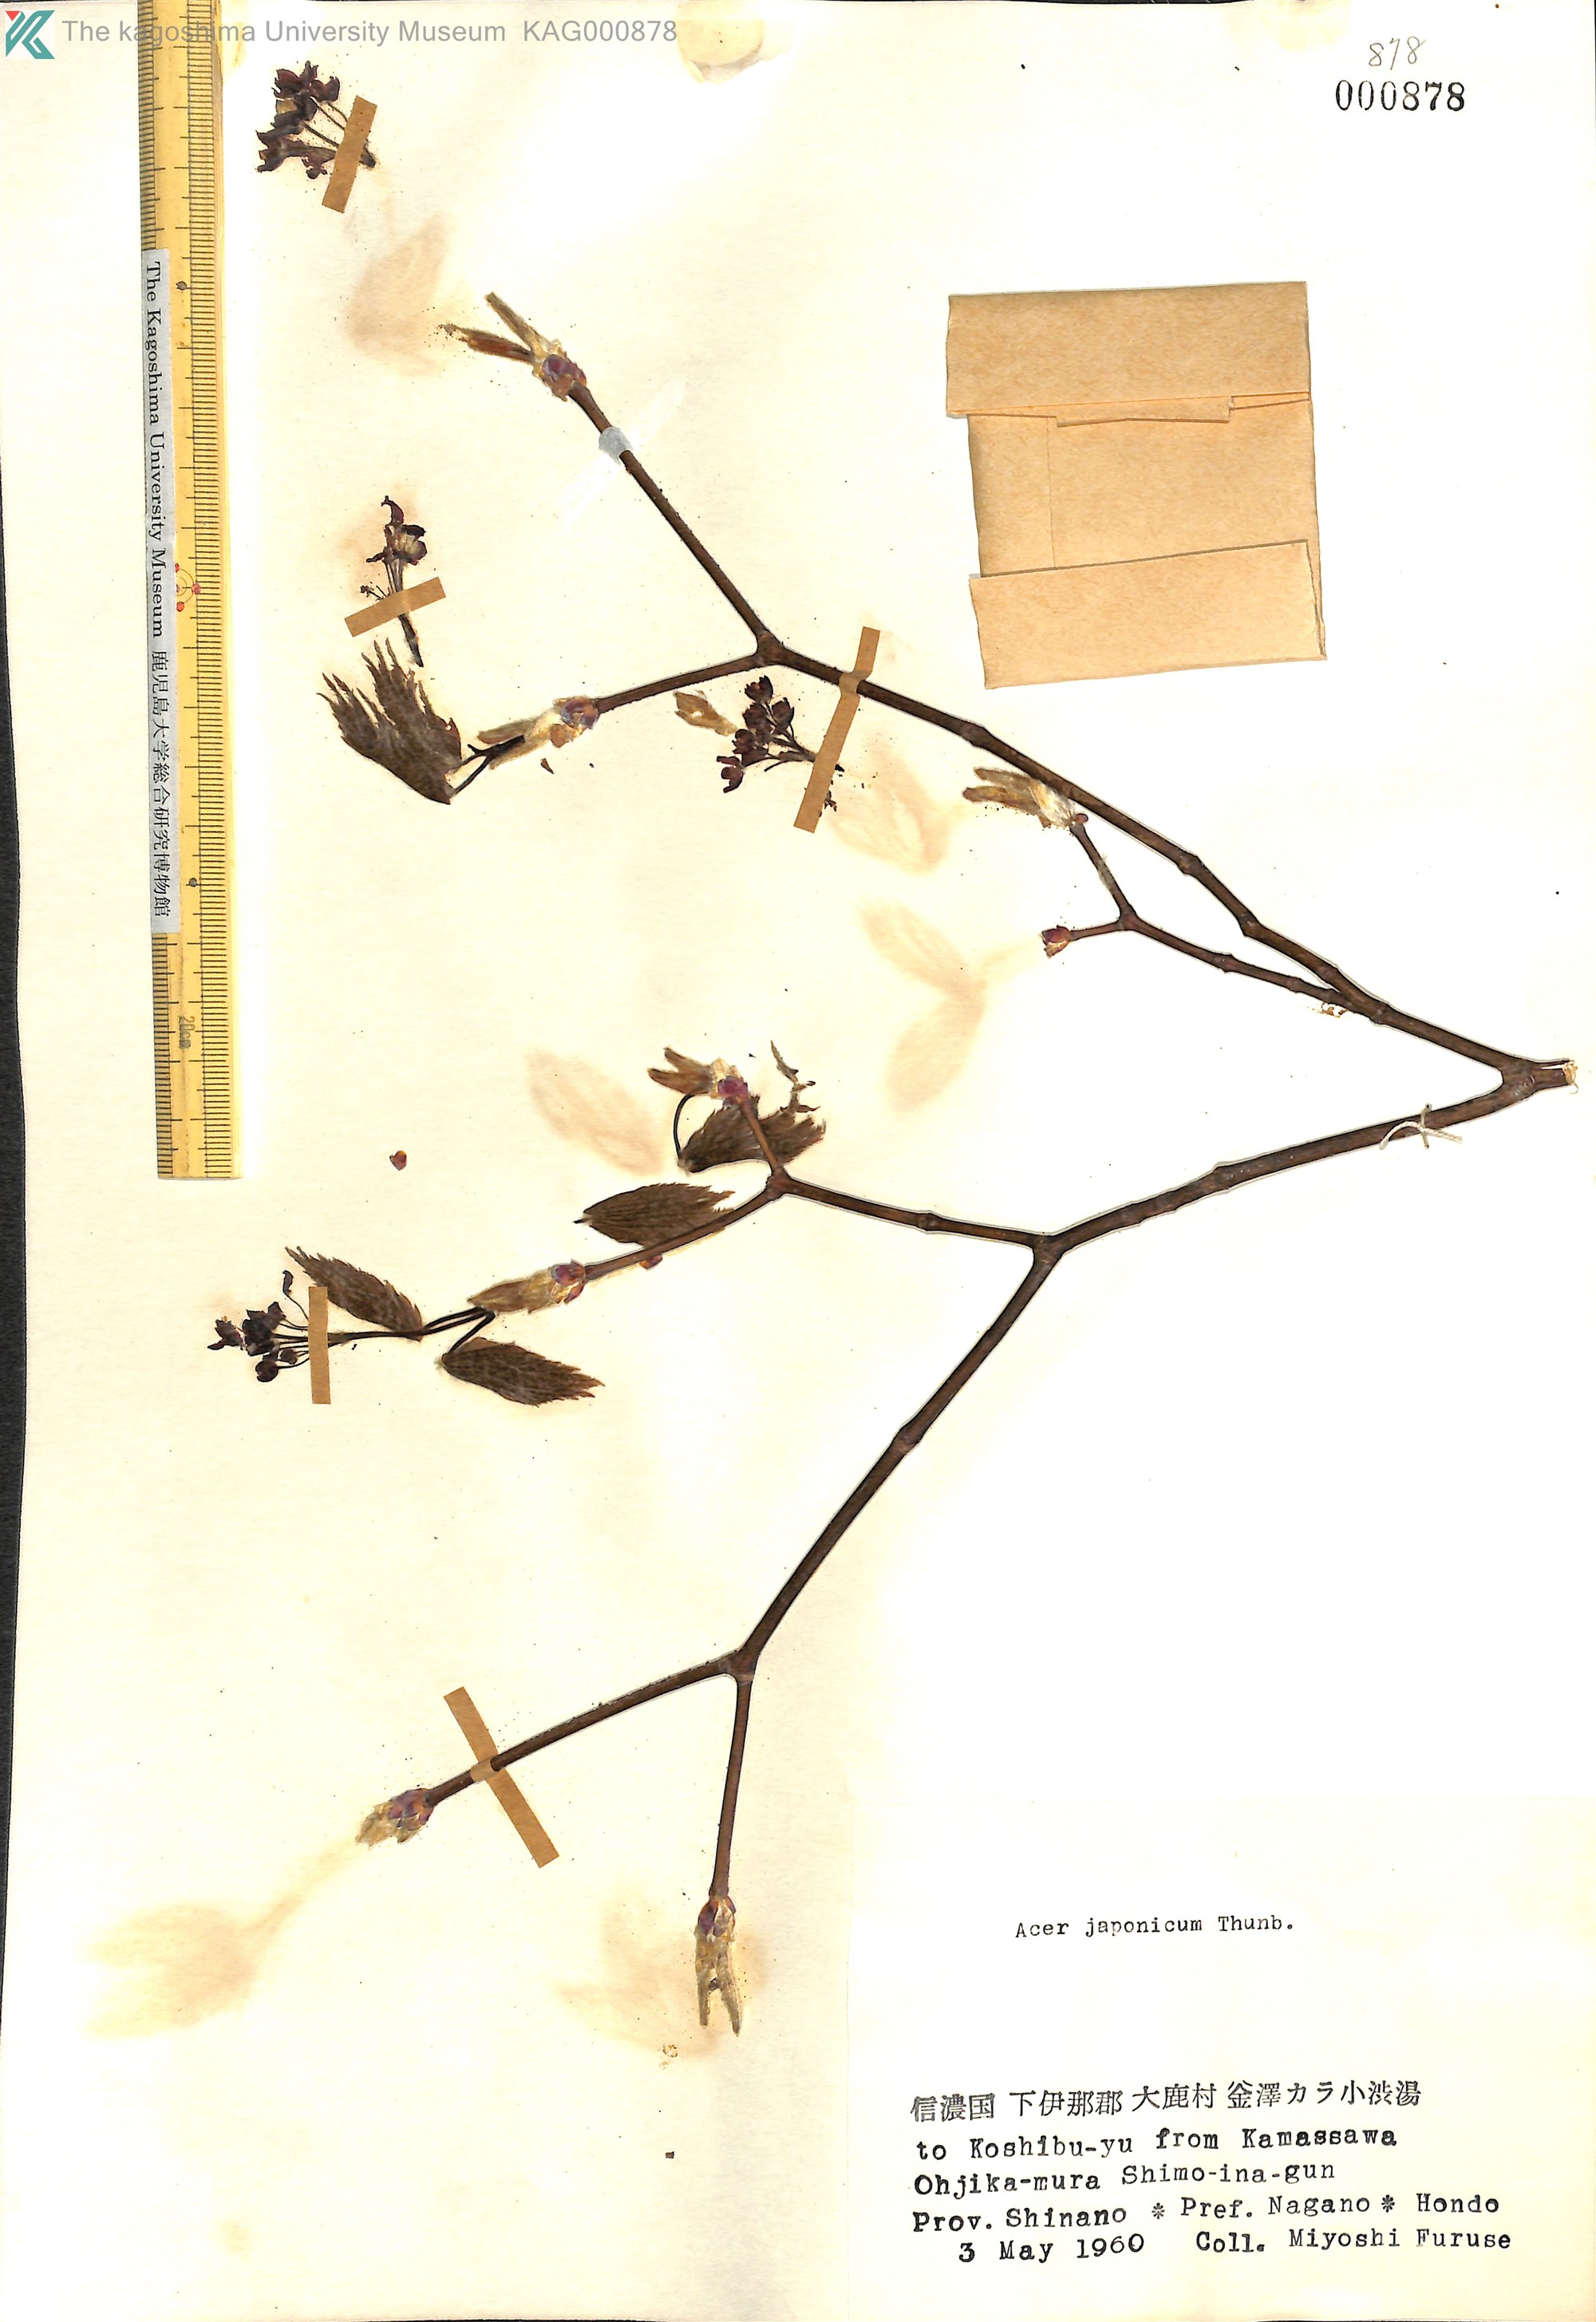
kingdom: Plantae
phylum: Tracheophyta
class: Magnoliopsida
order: Sapindales
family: Sapindaceae
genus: Acer
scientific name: Acer japonicum
